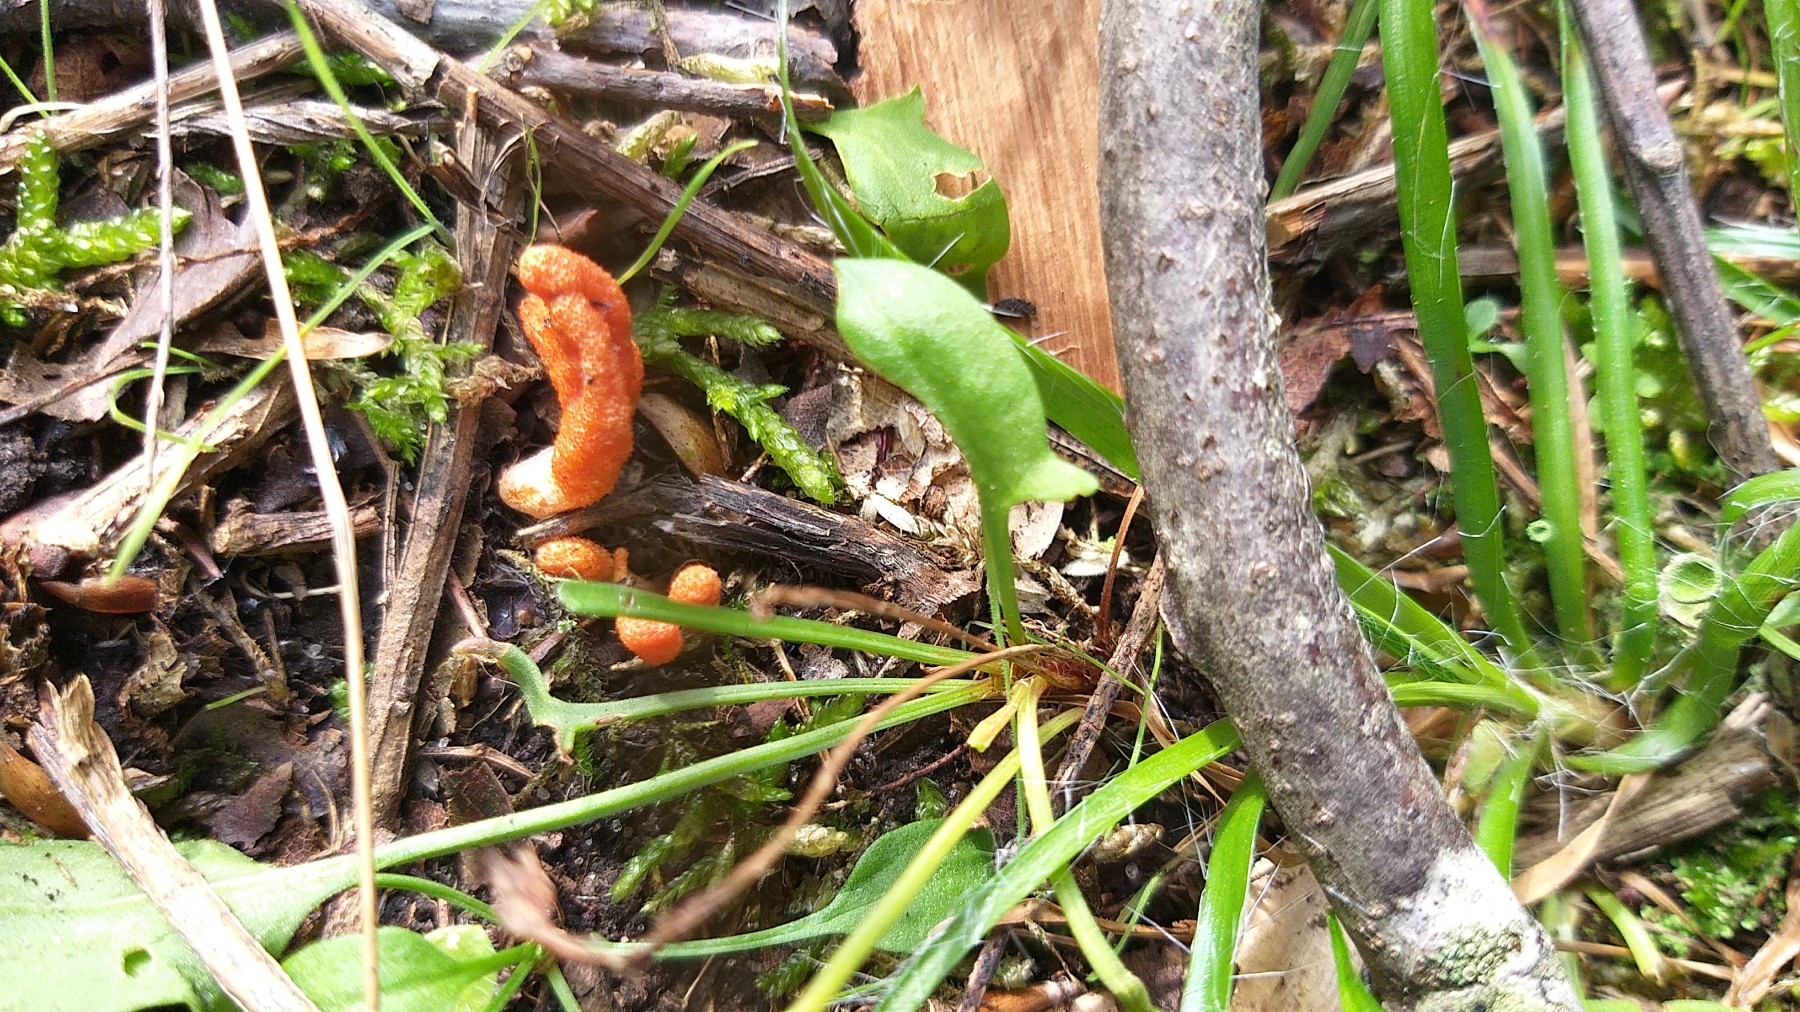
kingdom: Fungi
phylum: Ascomycota
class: Sordariomycetes
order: Hypocreales
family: Cordycipitaceae
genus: Cordyceps
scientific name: Cordyceps militaris
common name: puppe-snyltekølle
